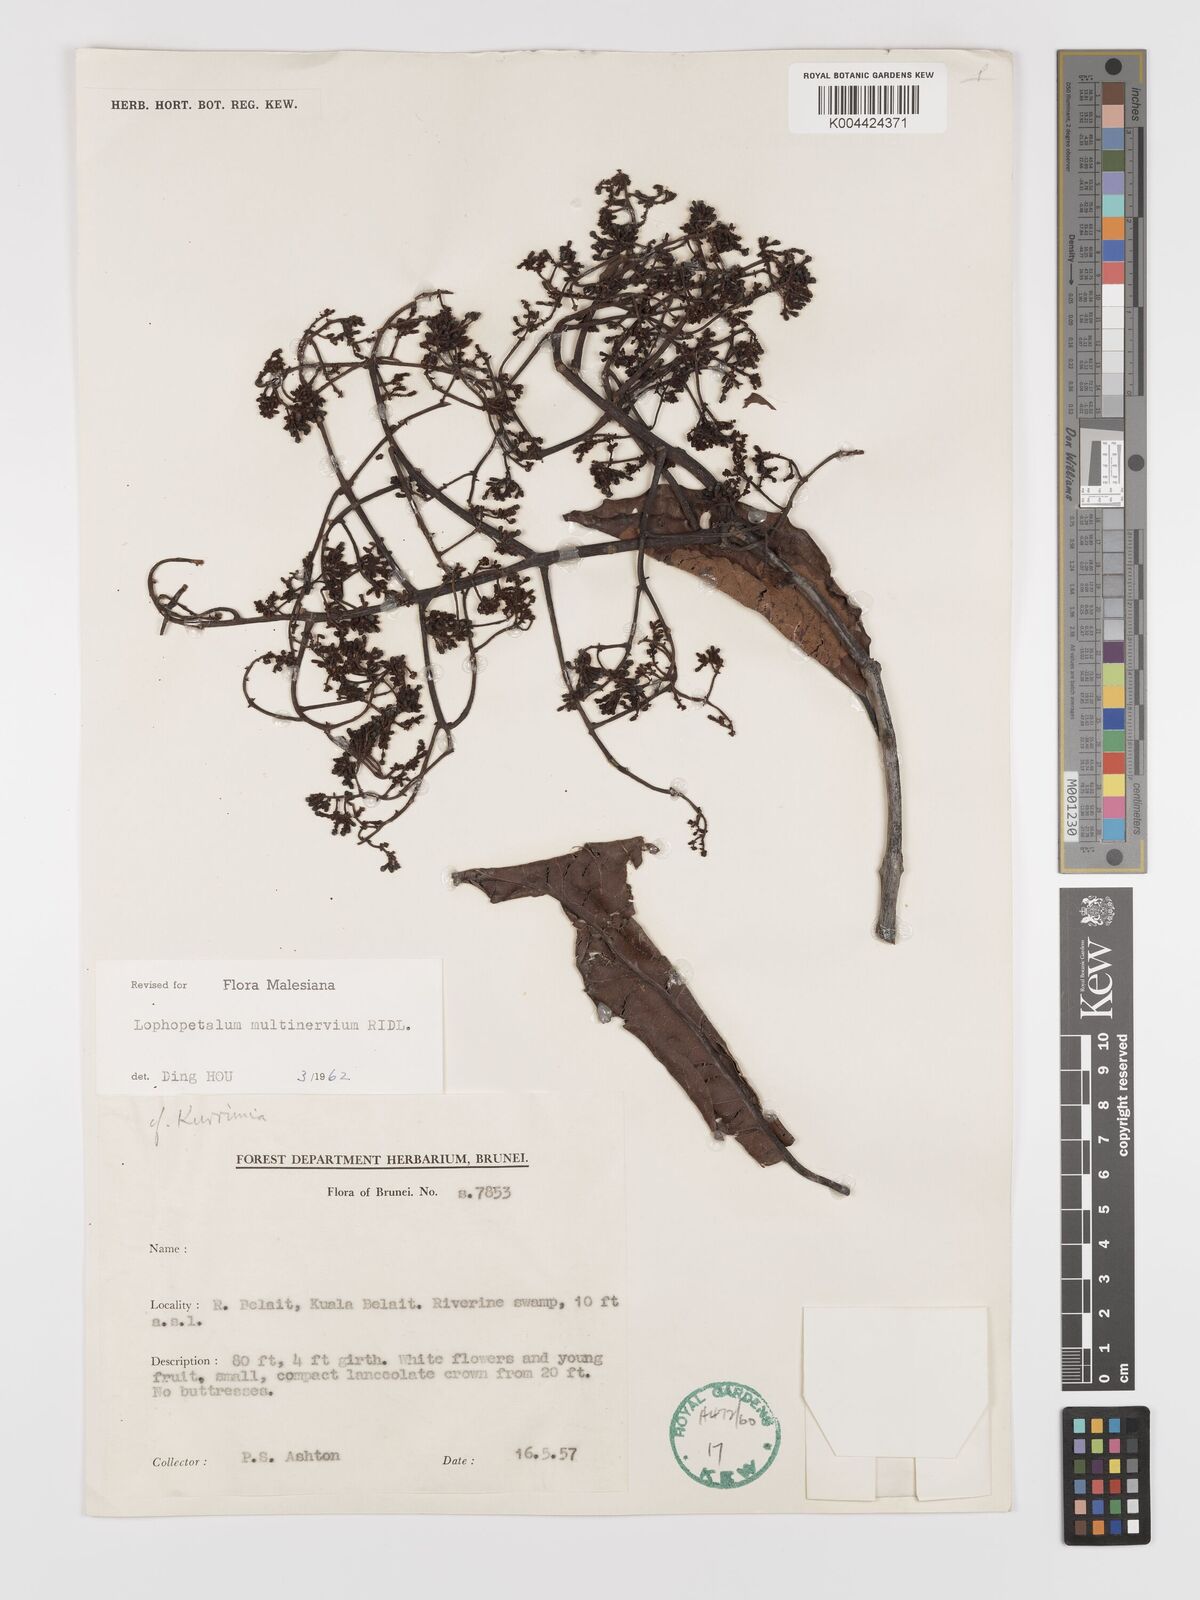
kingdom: Plantae
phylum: Tracheophyta
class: Magnoliopsida
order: Celastrales
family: Celastraceae
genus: Lophopetalum
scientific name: Lophopetalum multinervium
